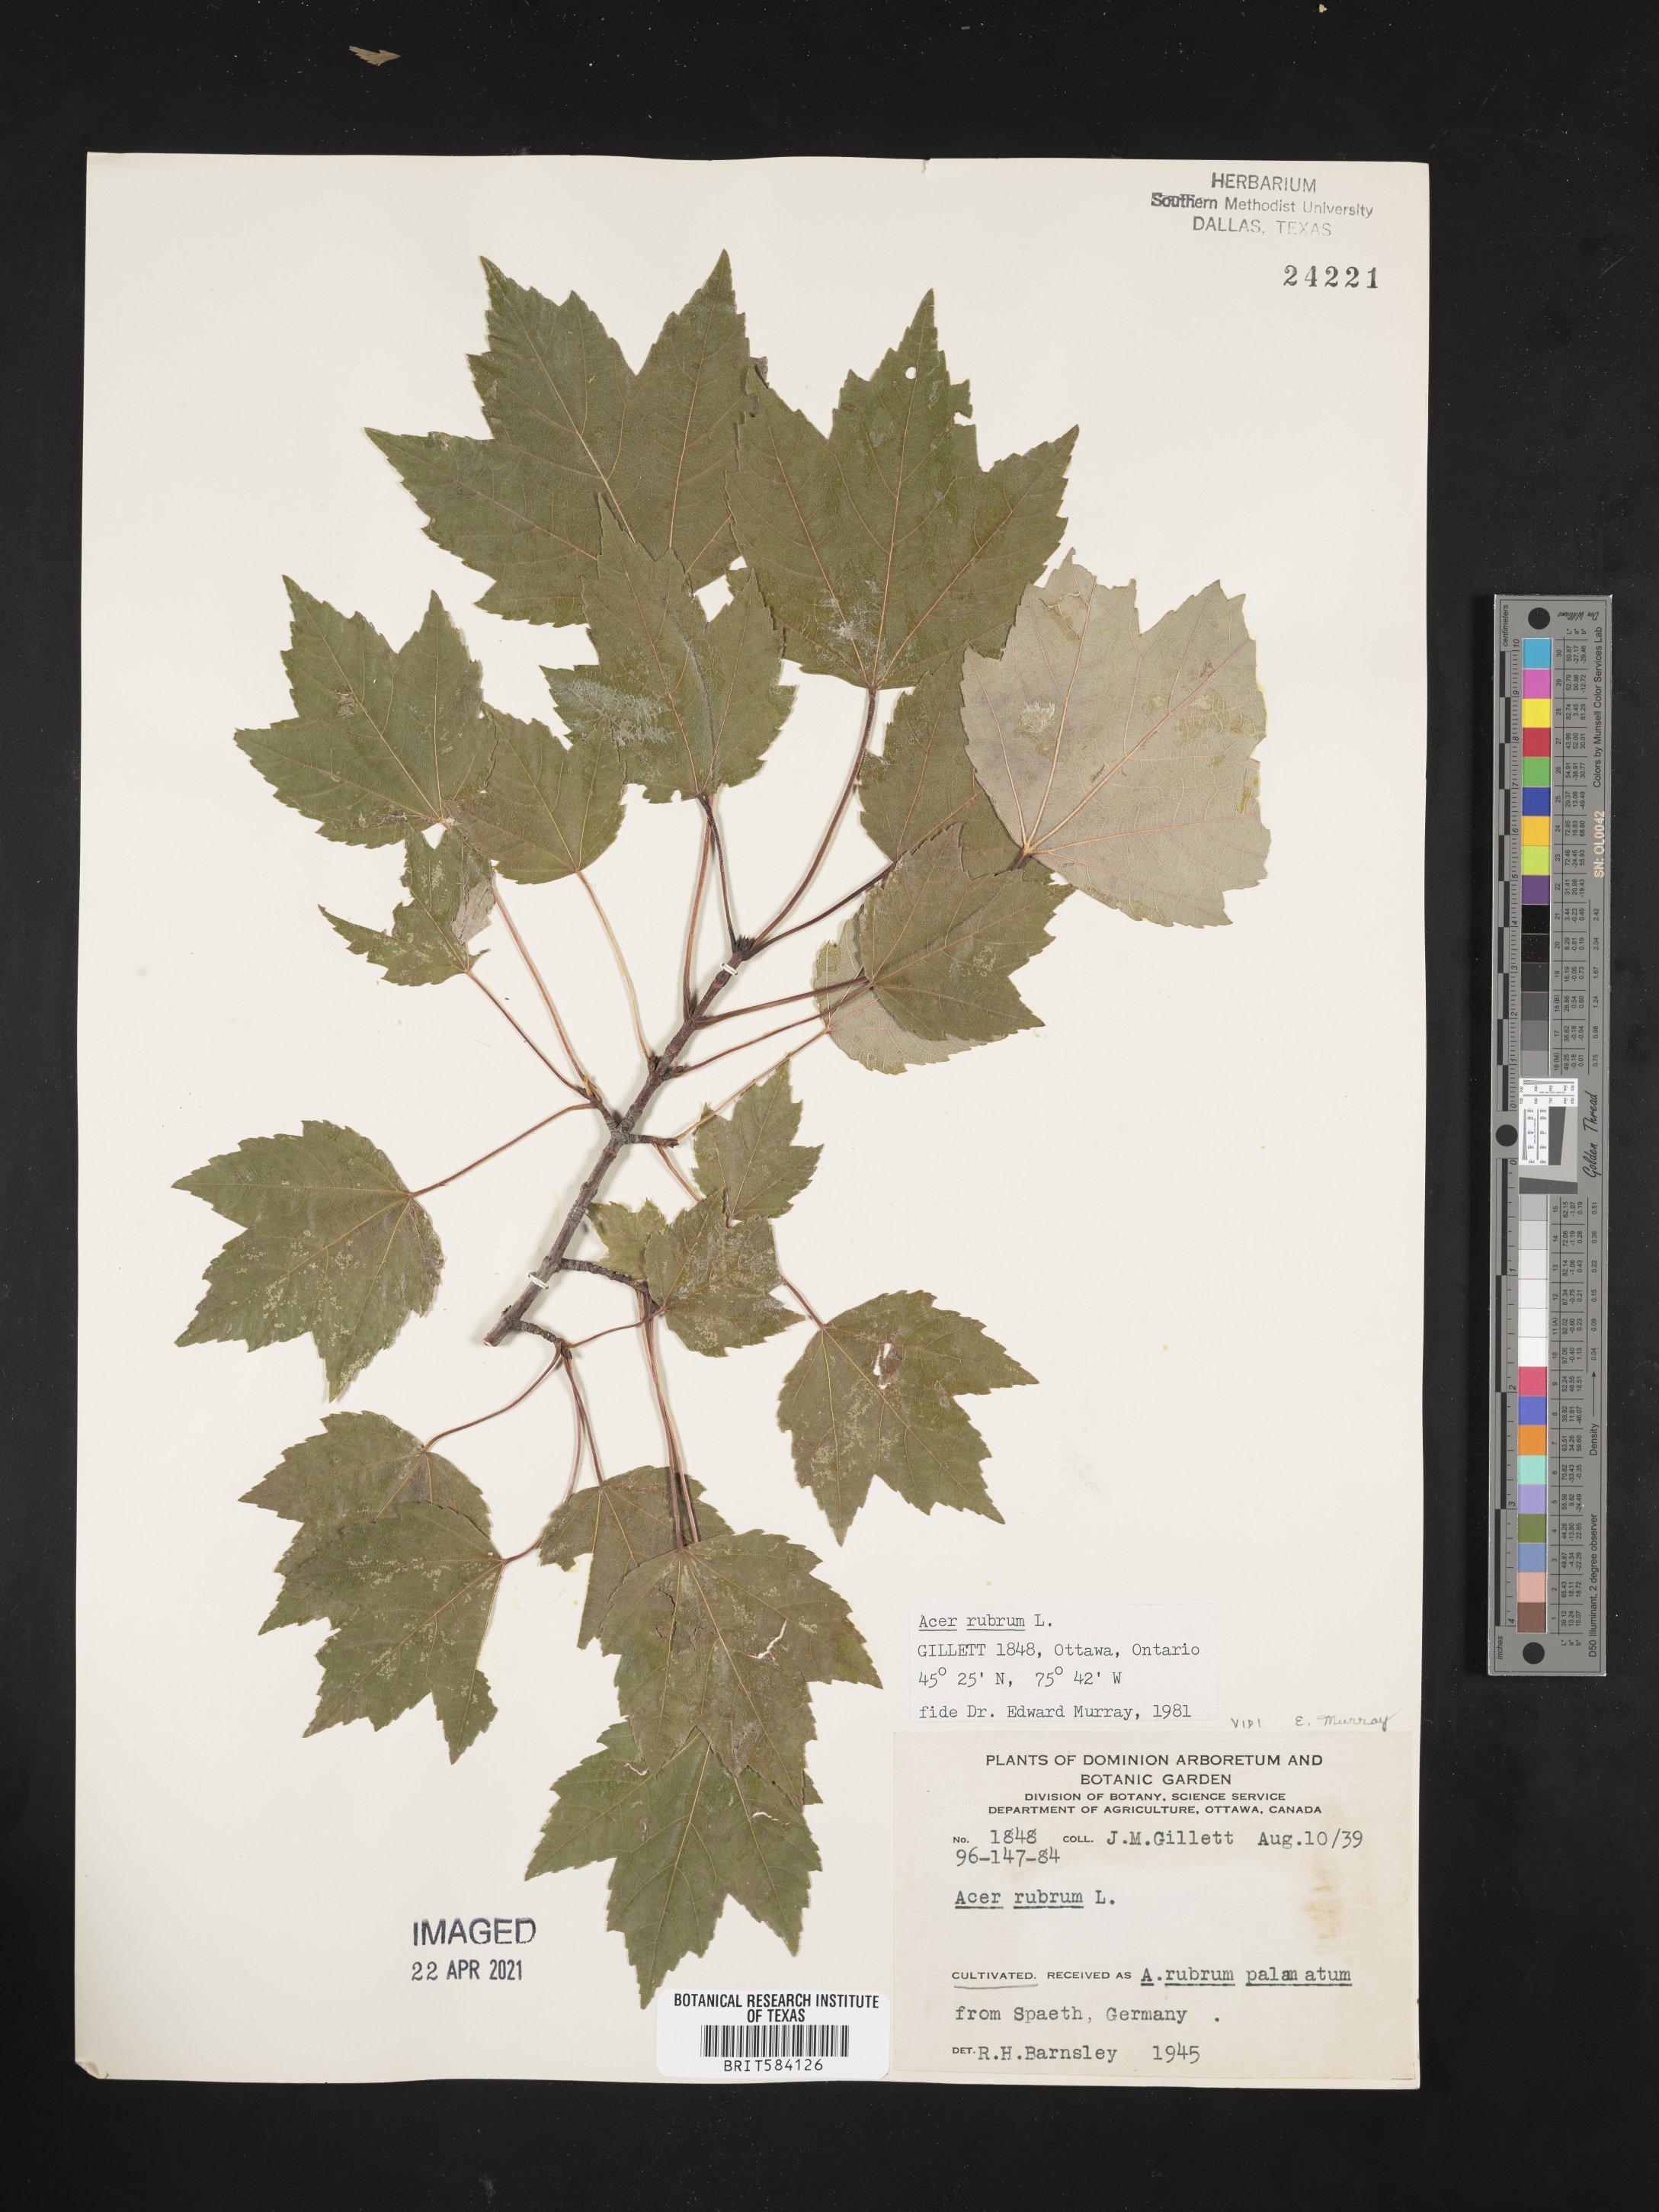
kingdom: Plantae
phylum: Tracheophyta
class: Magnoliopsida
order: Sapindales
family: Sapindaceae
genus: Acer
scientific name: Acer rubrum
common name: Red maple
